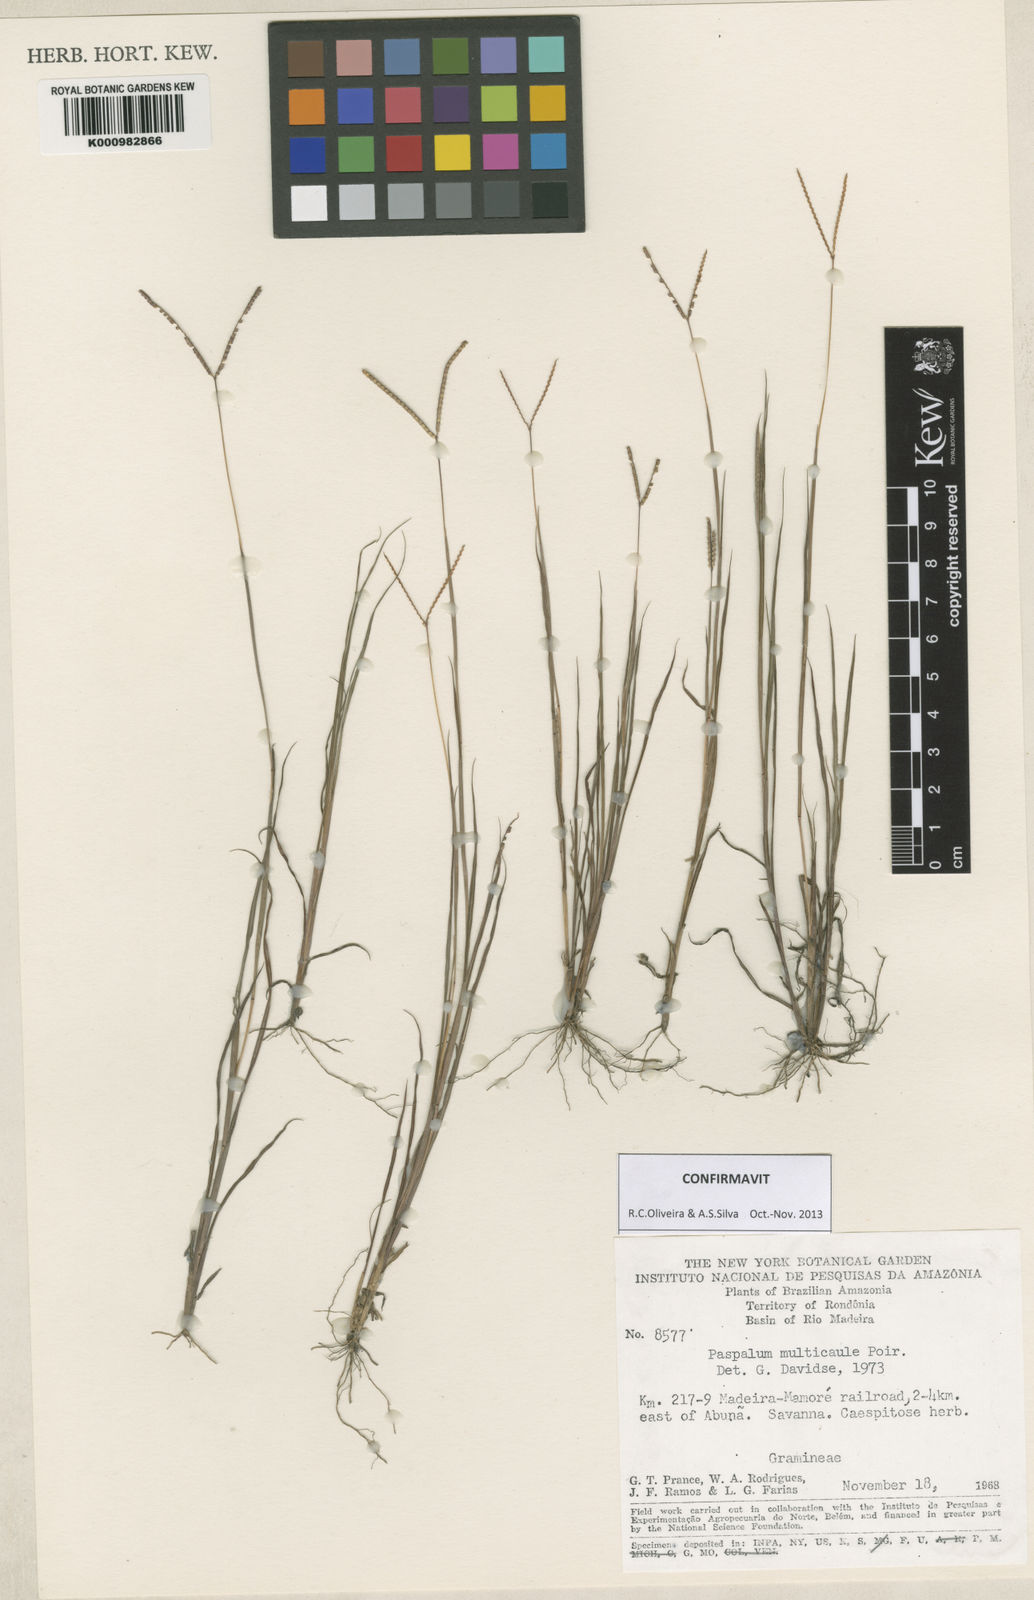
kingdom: Plantae
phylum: Tracheophyta
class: Liliopsida
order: Poales
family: Poaceae
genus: Paspalum
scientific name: Paspalum multicaule
